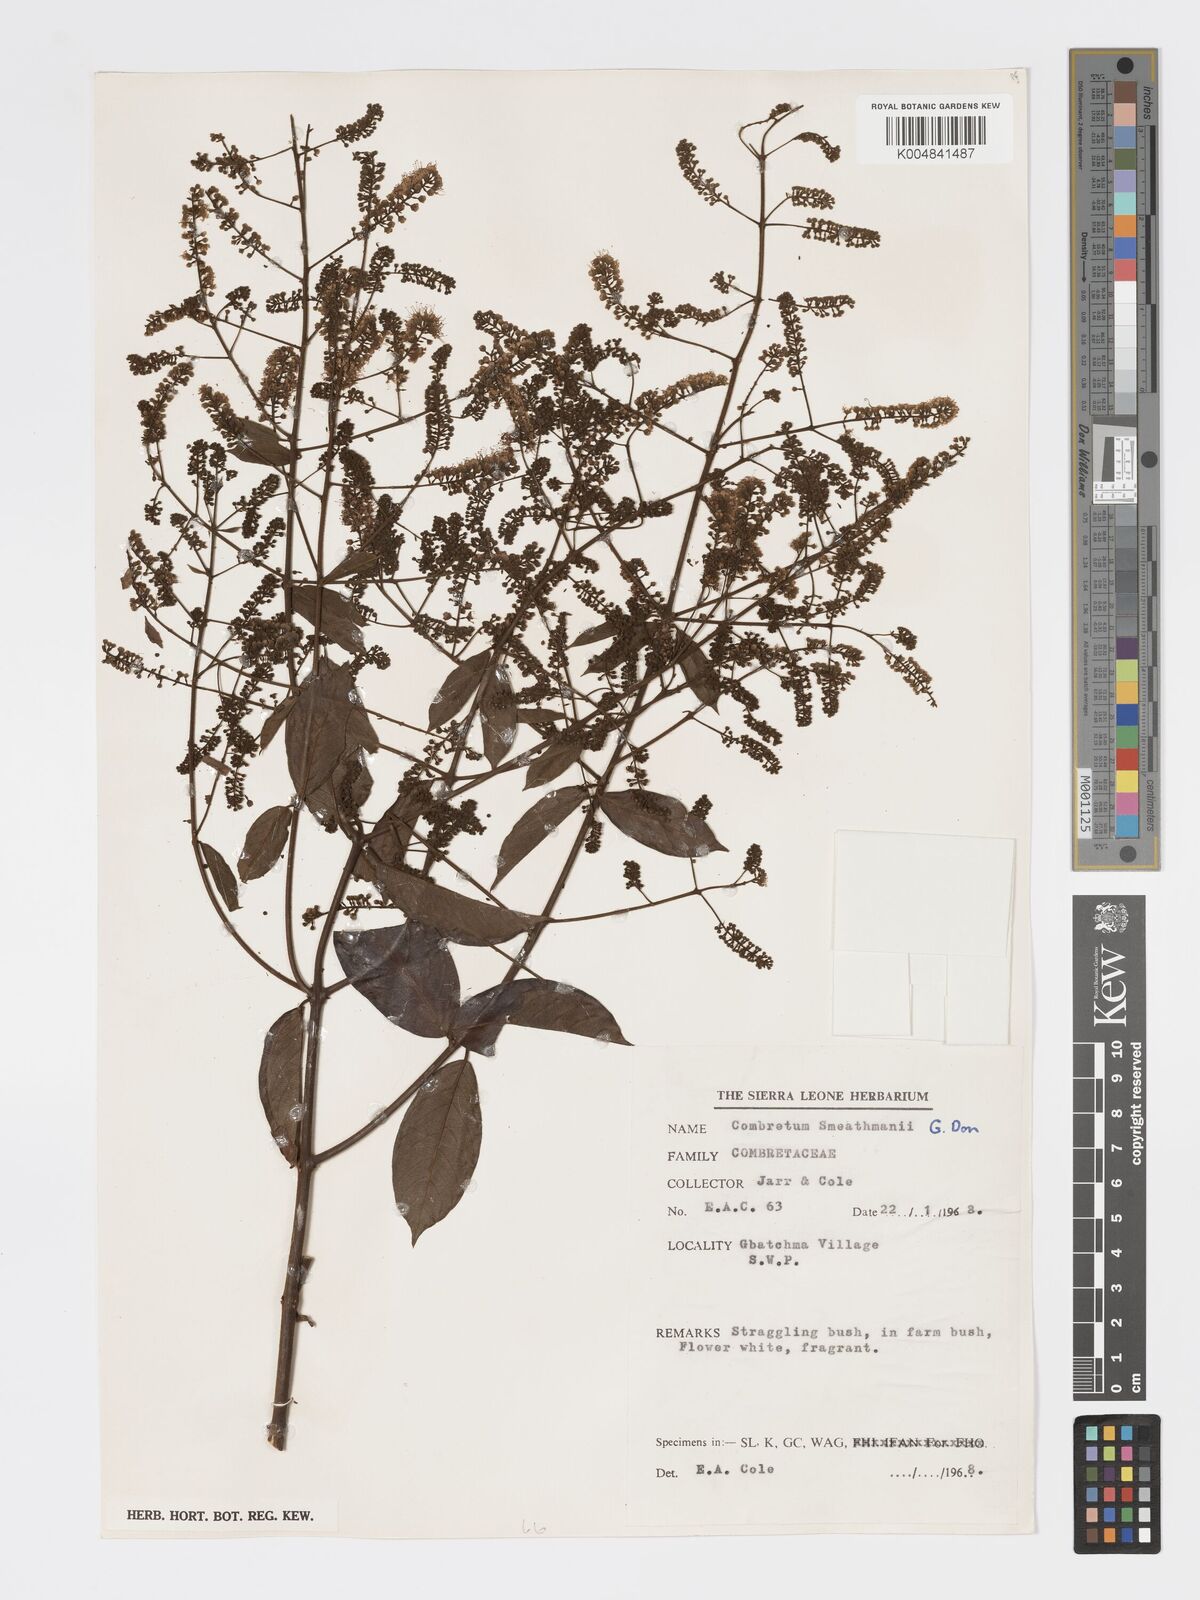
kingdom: Plantae
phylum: Tracheophyta
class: Magnoliopsida
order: Myrtales
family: Combretaceae
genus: Combretum
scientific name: Combretum mucronatum
